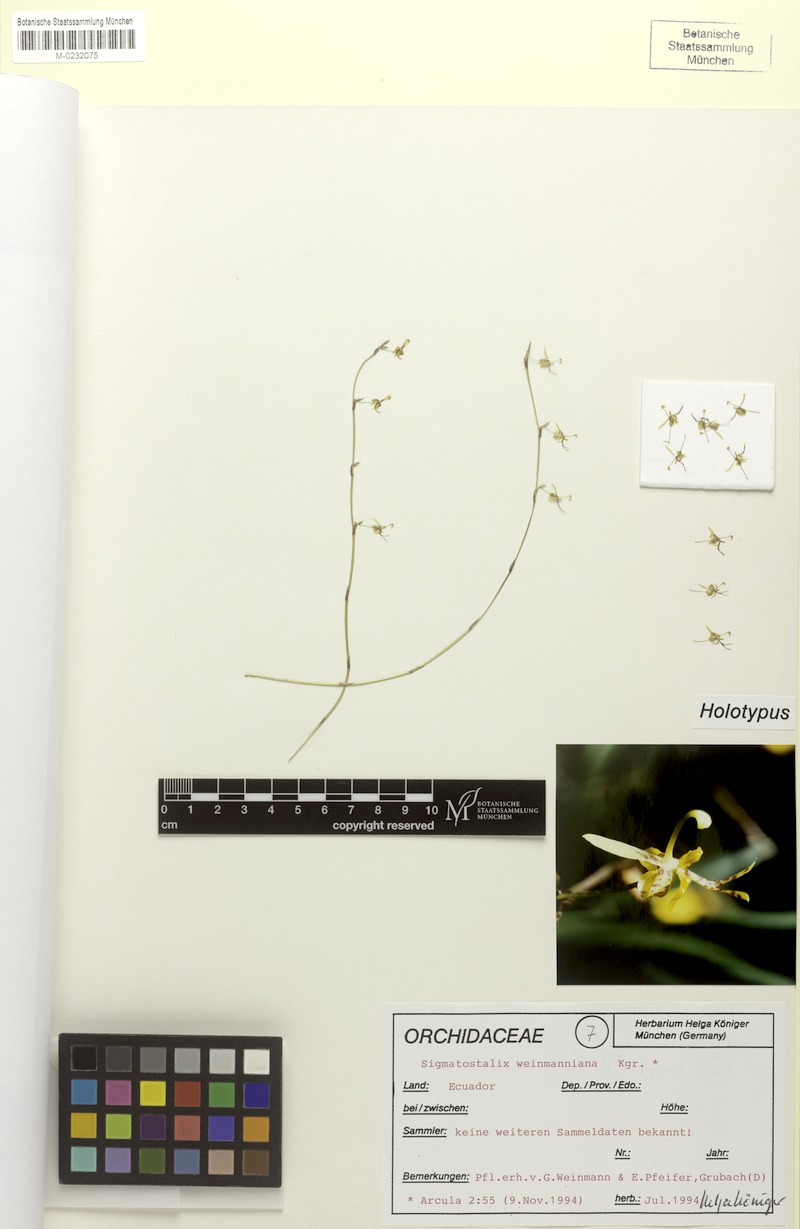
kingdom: Plantae
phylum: Tracheophyta
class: Liliopsida
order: Asparagales
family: Orchidaceae
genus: Oncidium
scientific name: Oncidium weinmannianum
